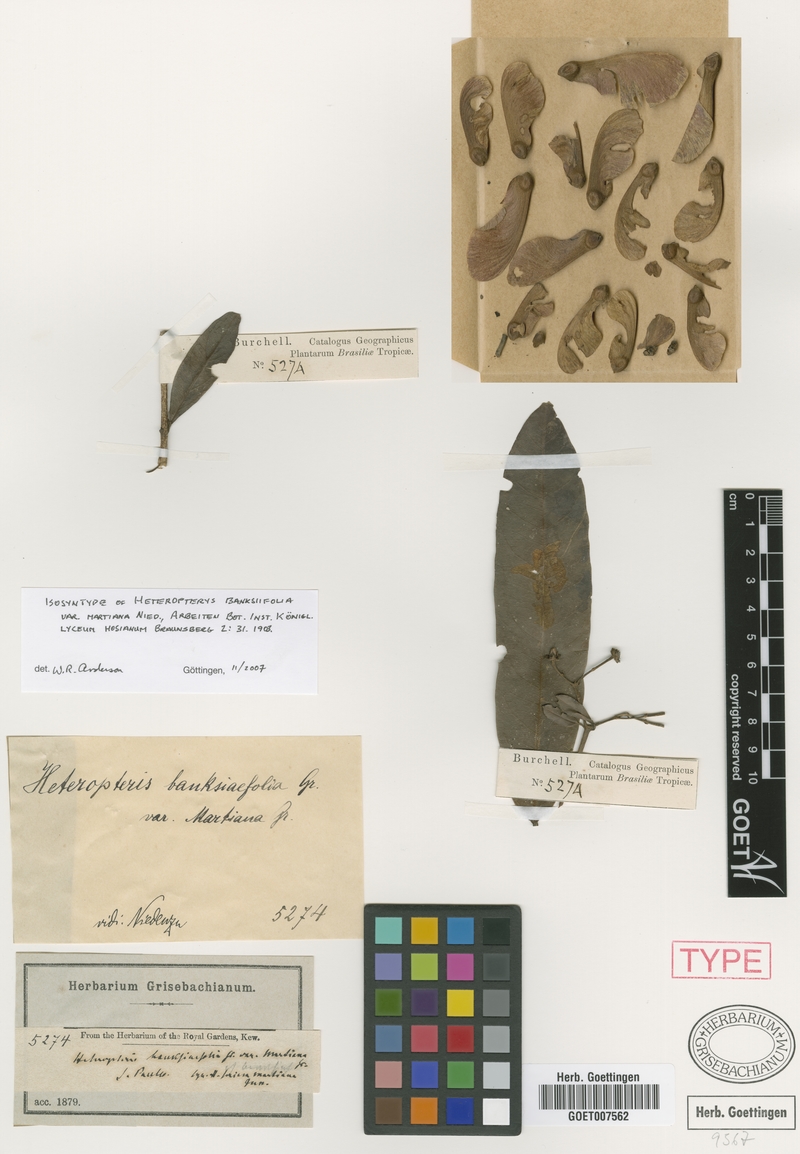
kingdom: Plantae
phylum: Tracheophyta
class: Magnoliopsida
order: Malpighiales
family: Malpighiaceae
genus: Heteropterys
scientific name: Heteropterys banksiifolia
